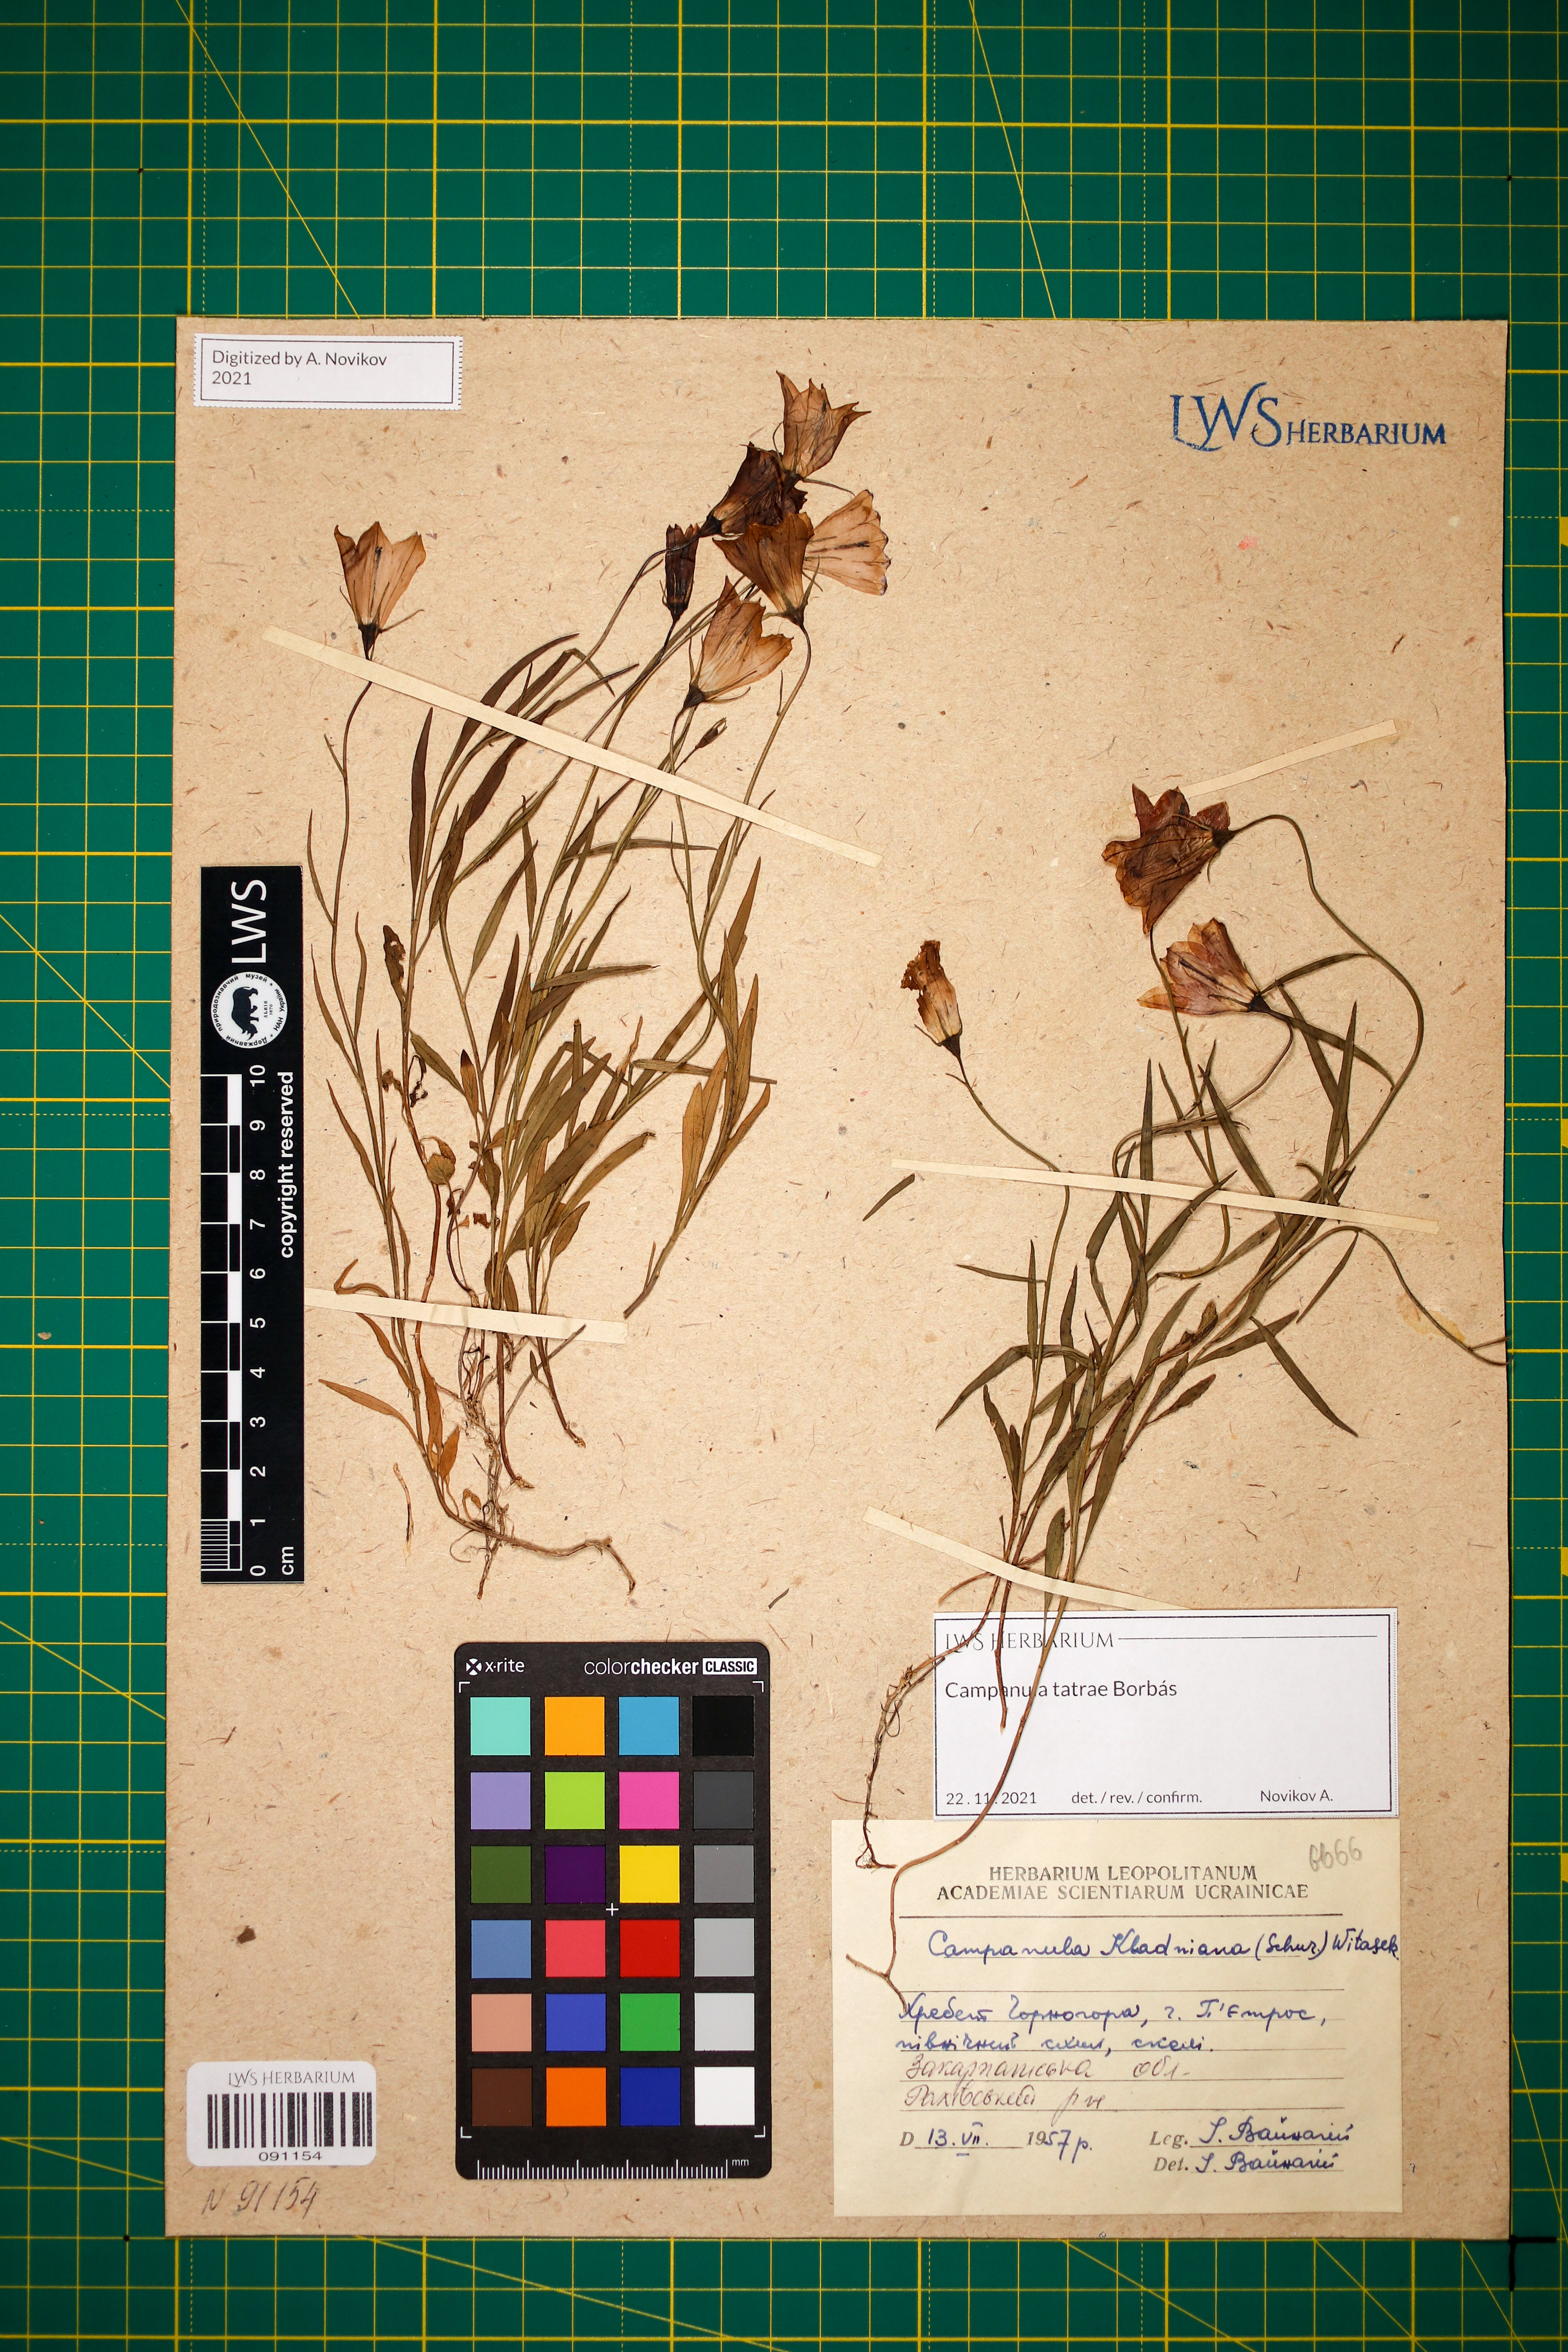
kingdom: Plantae
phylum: Tracheophyta
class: Magnoliopsida
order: Asterales
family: Campanulaceae
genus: Campanula
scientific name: Campanula kladniana
